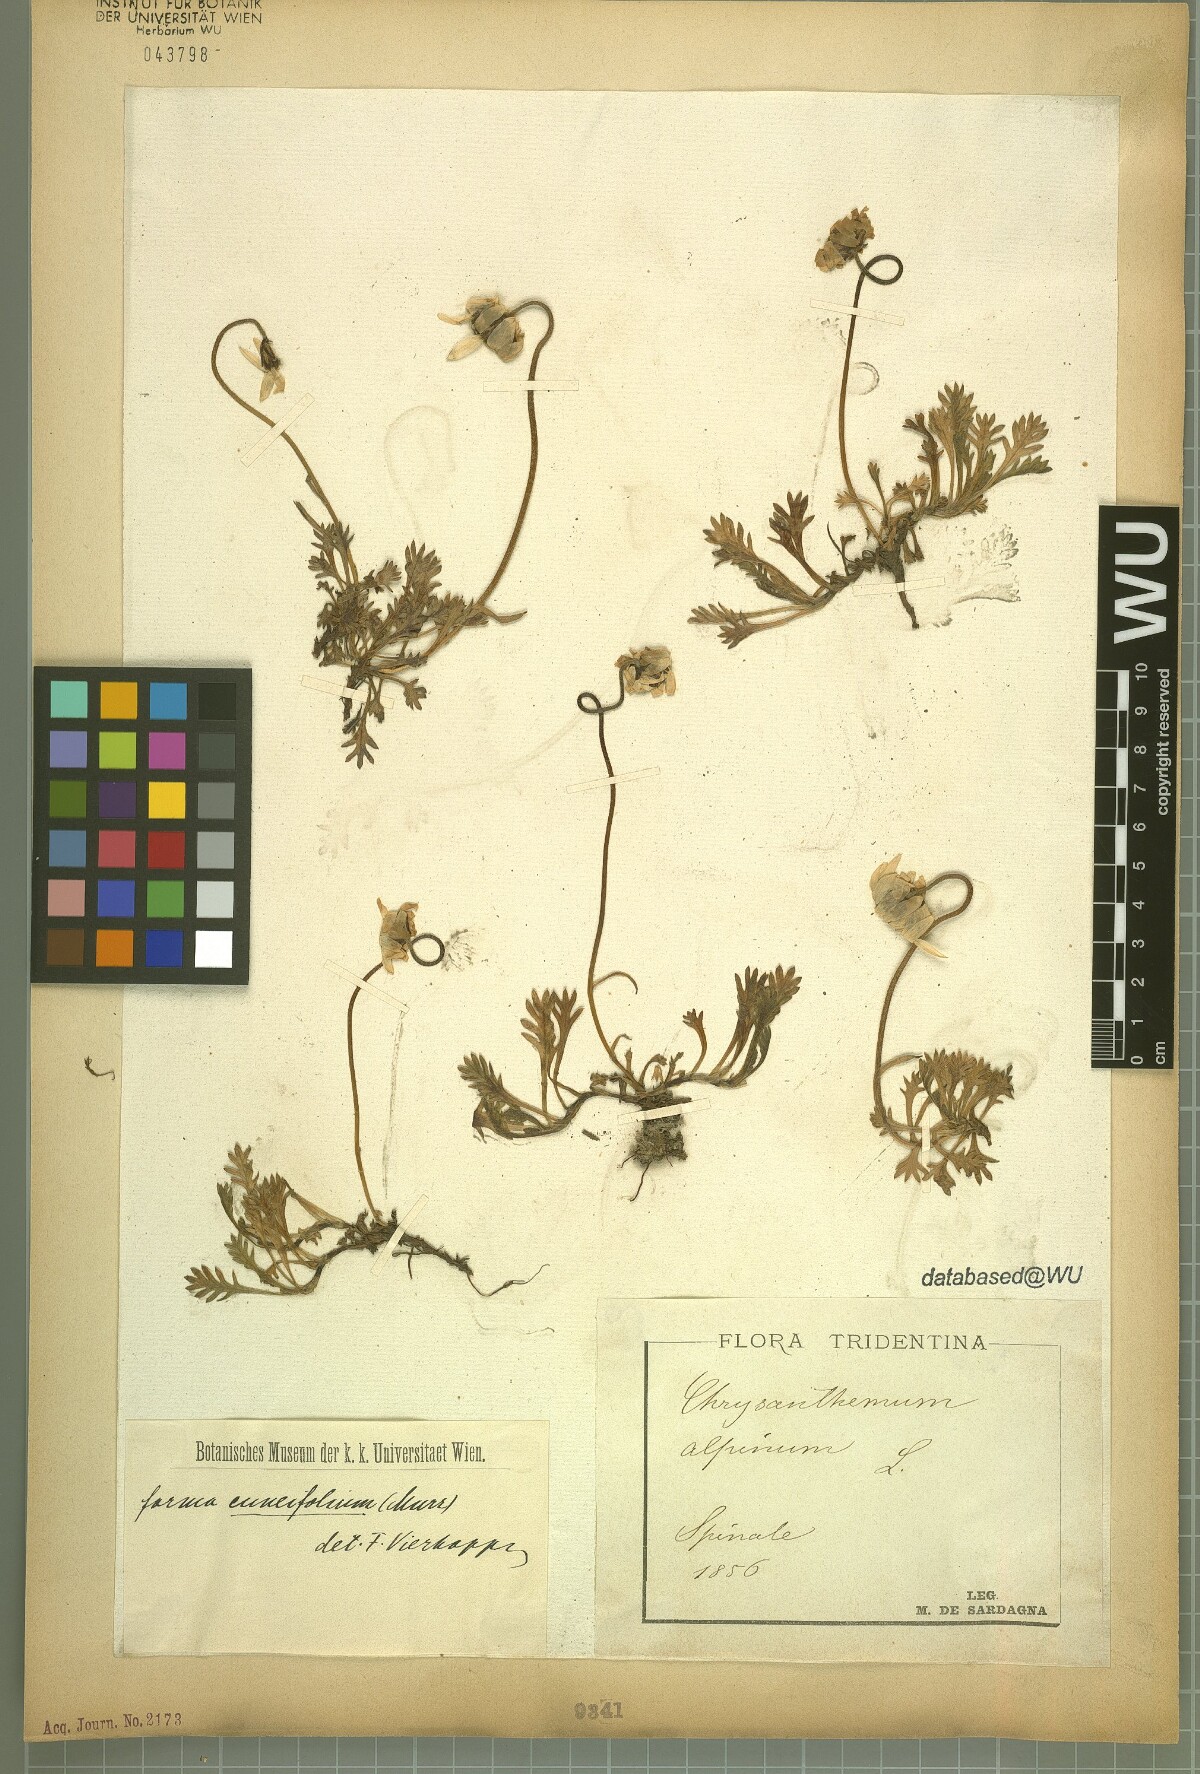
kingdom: Plantae
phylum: Tracheophyta
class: Magnoliopsida
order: Asterales
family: Asteraceae
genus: Leucanthemopsis
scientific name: Leucanthemopsis alpina
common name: Alpine moon daisy
